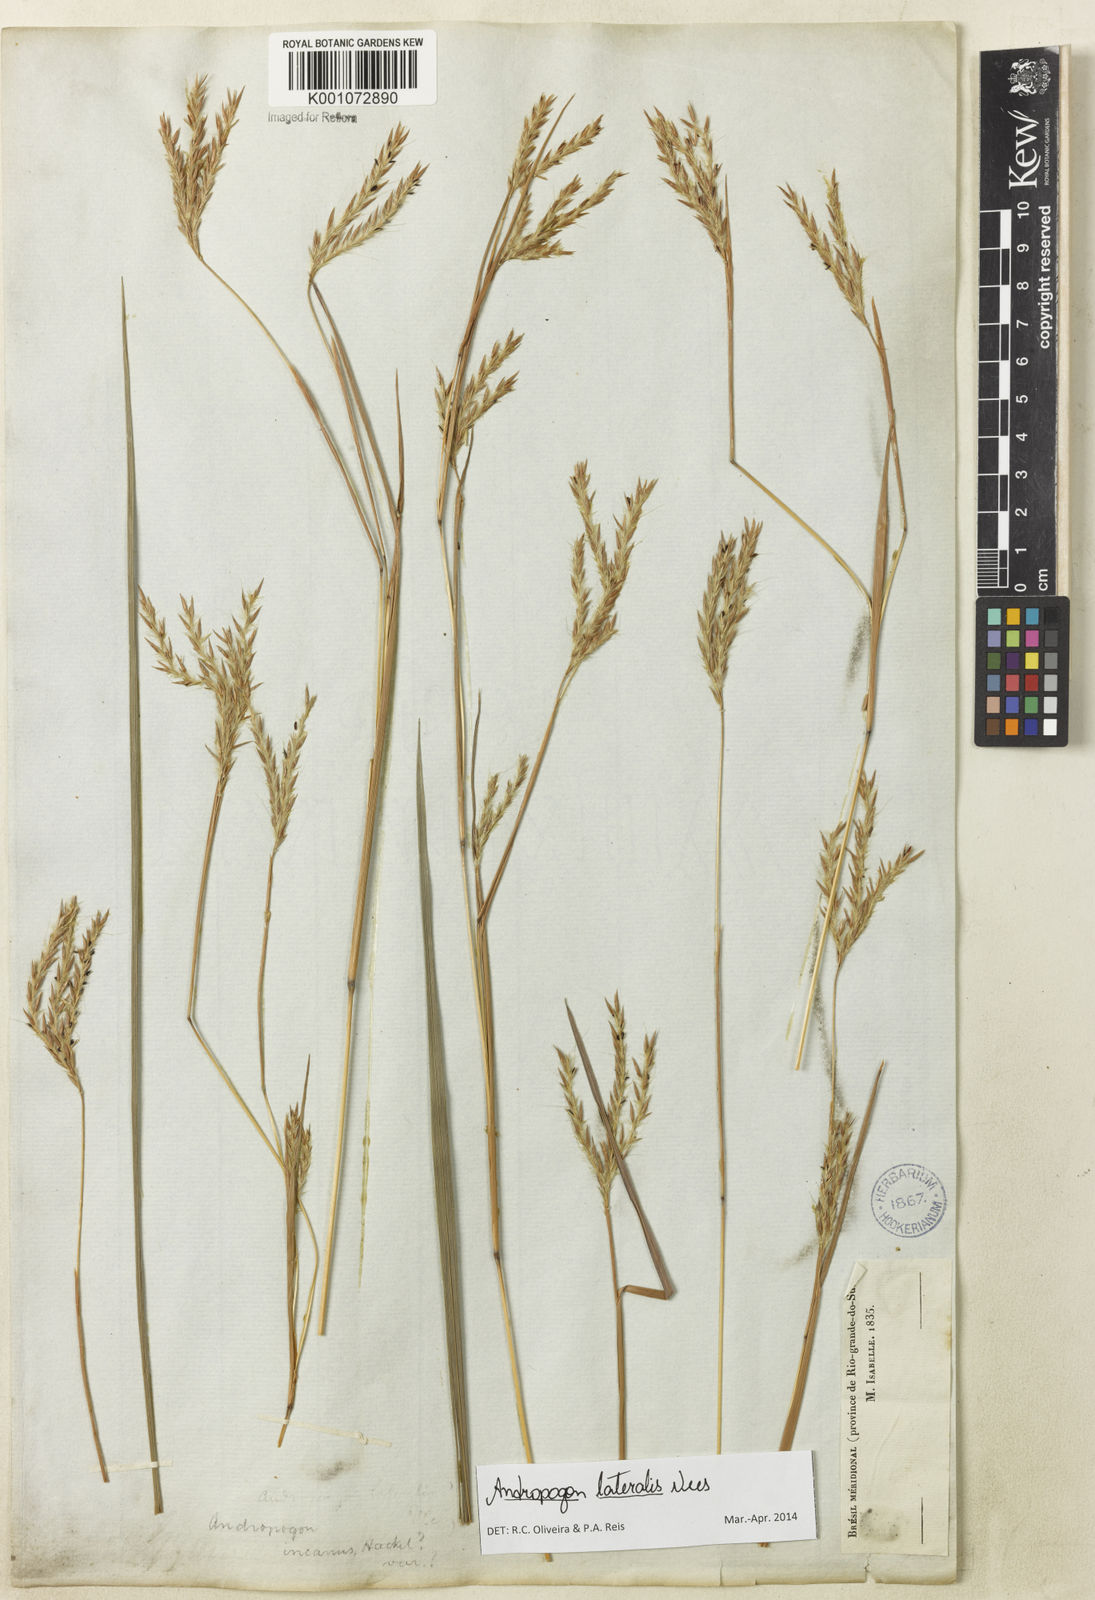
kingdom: Plantae
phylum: Tracheophyta
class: Liliopsida
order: Poales
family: Poaceae
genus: Andropogon
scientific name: Andropogon lateralis
